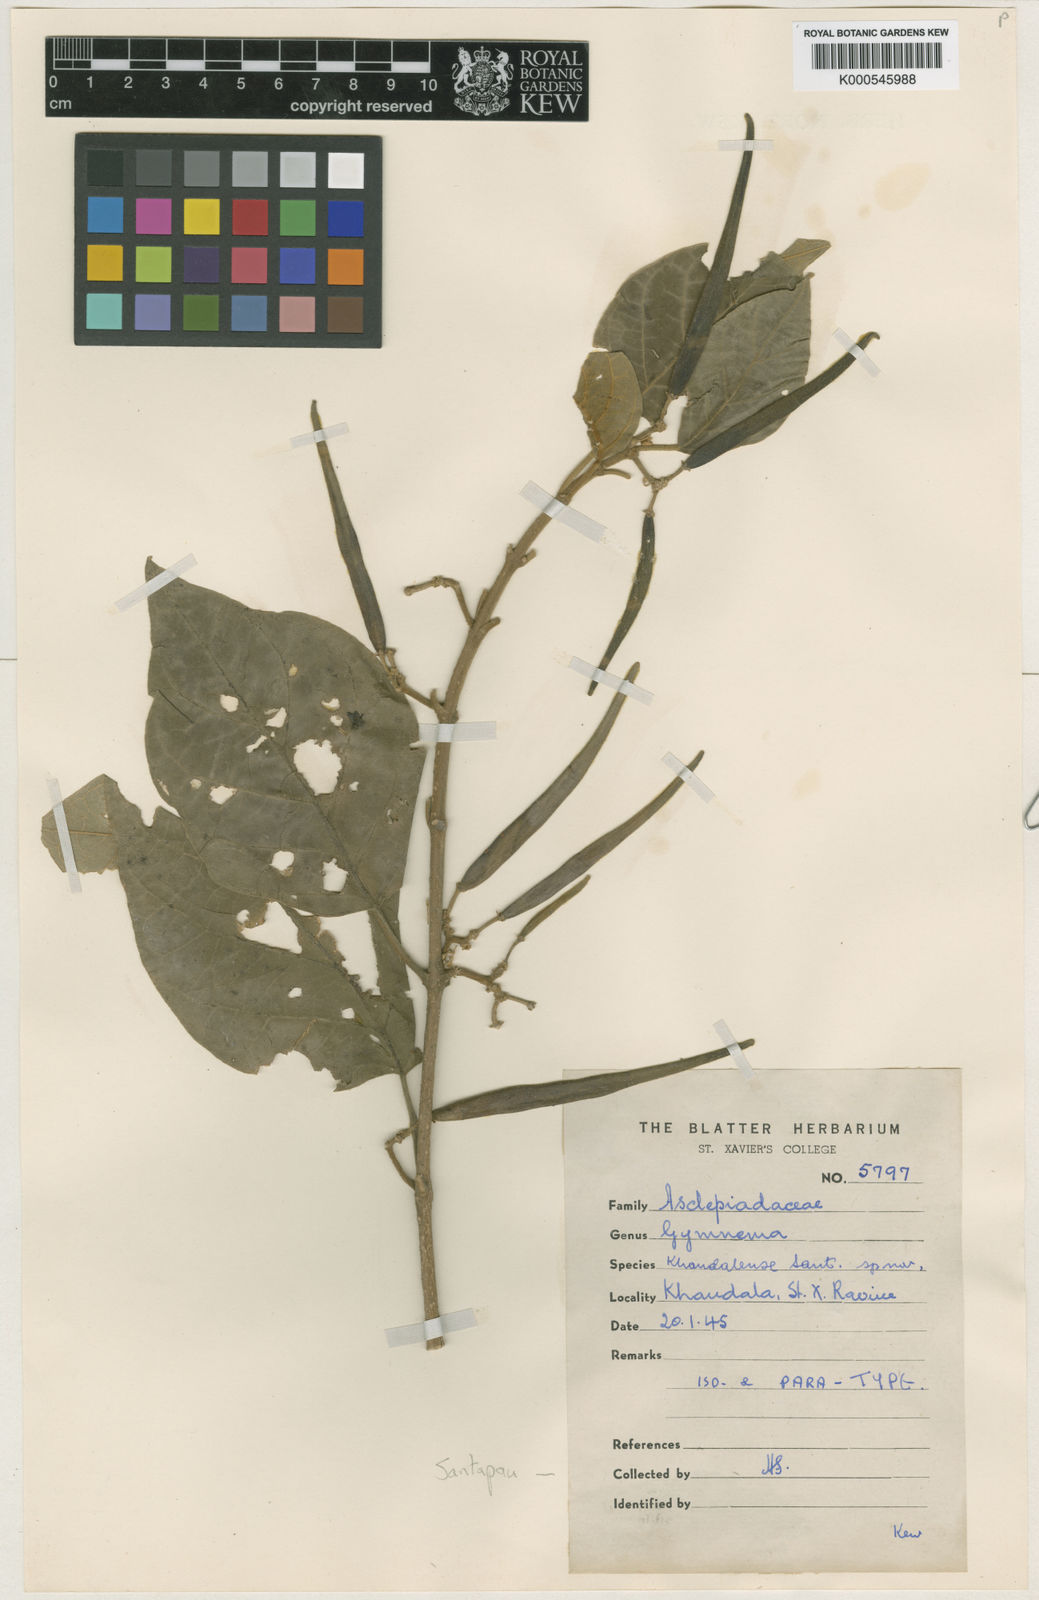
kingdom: Plantae
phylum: Tracheophyta
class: Magnoliopsida
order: Gentianales
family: Apocynaceae
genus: Gymnema
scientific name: Gymnema latifolium
